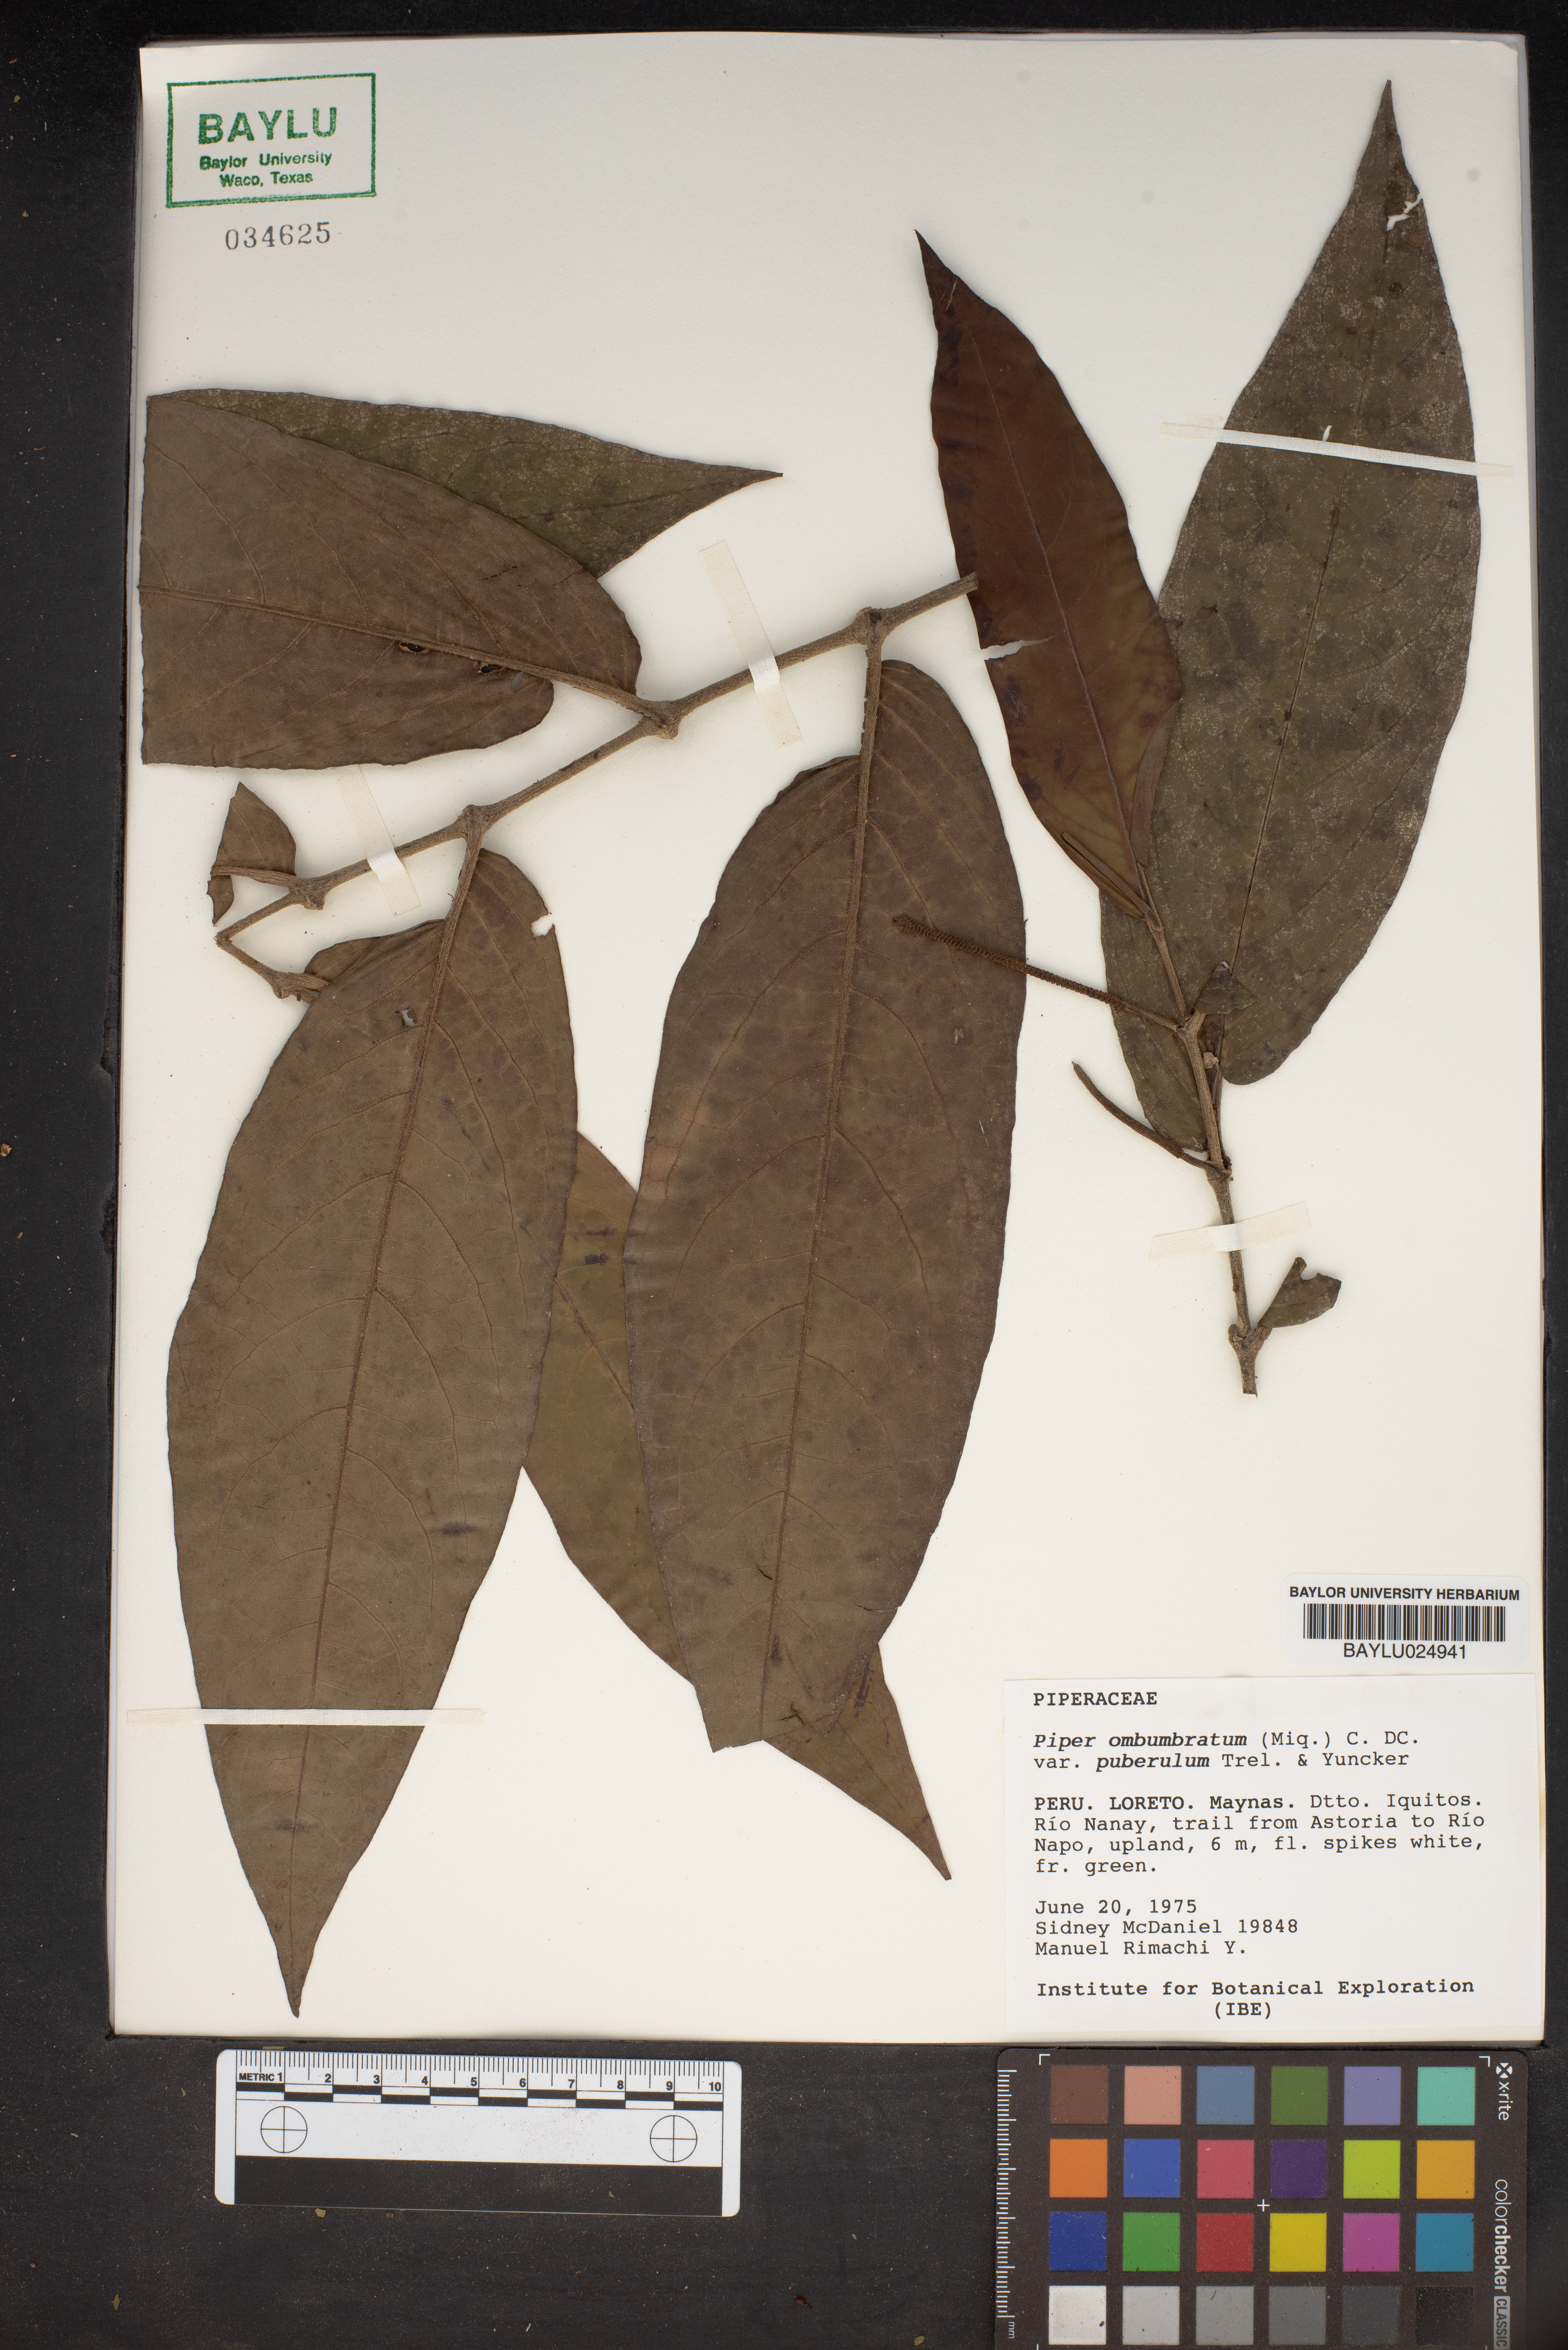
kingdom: Plantae
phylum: Tracheophyta
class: Magnoliopsida
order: Piperales
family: Piperaceae
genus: Piper
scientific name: Piper arboreum
